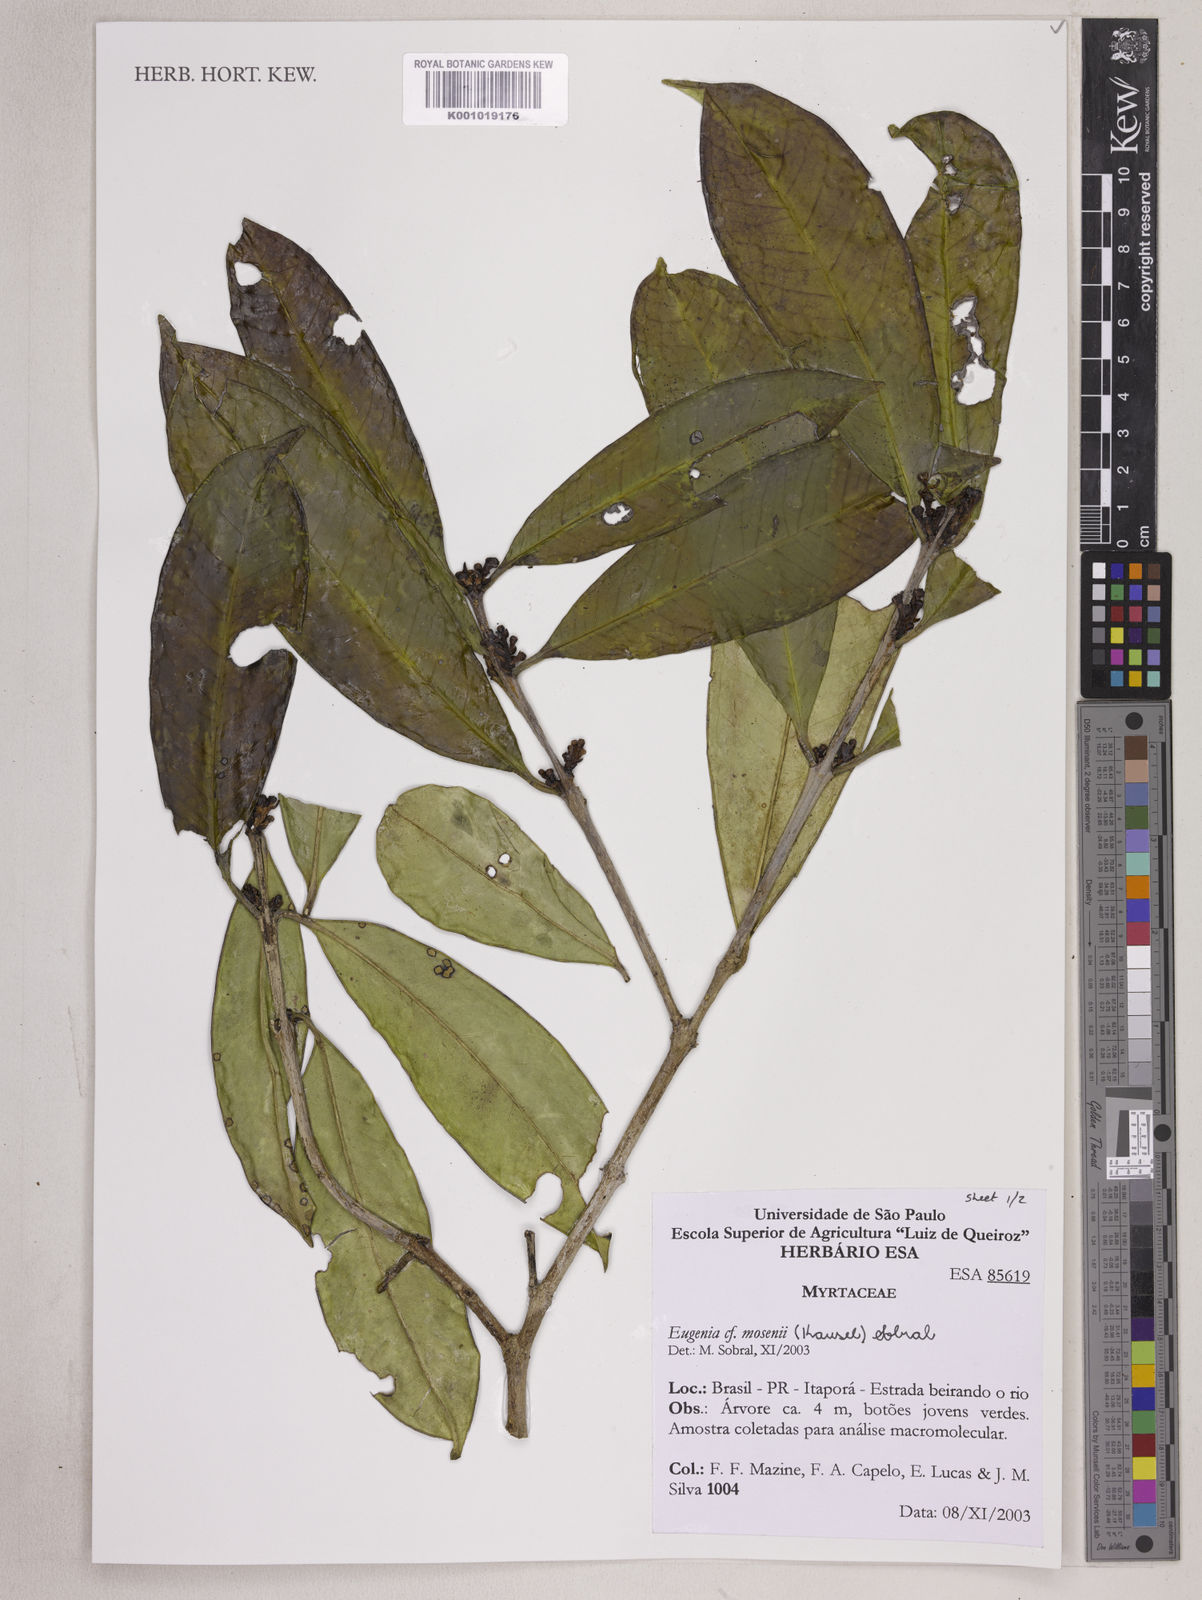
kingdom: Plantae
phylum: Tracheophyta
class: Magnoliopsida
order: Myrtales
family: Myrtaceae
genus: Eugenia
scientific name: Eugenia mosenii
